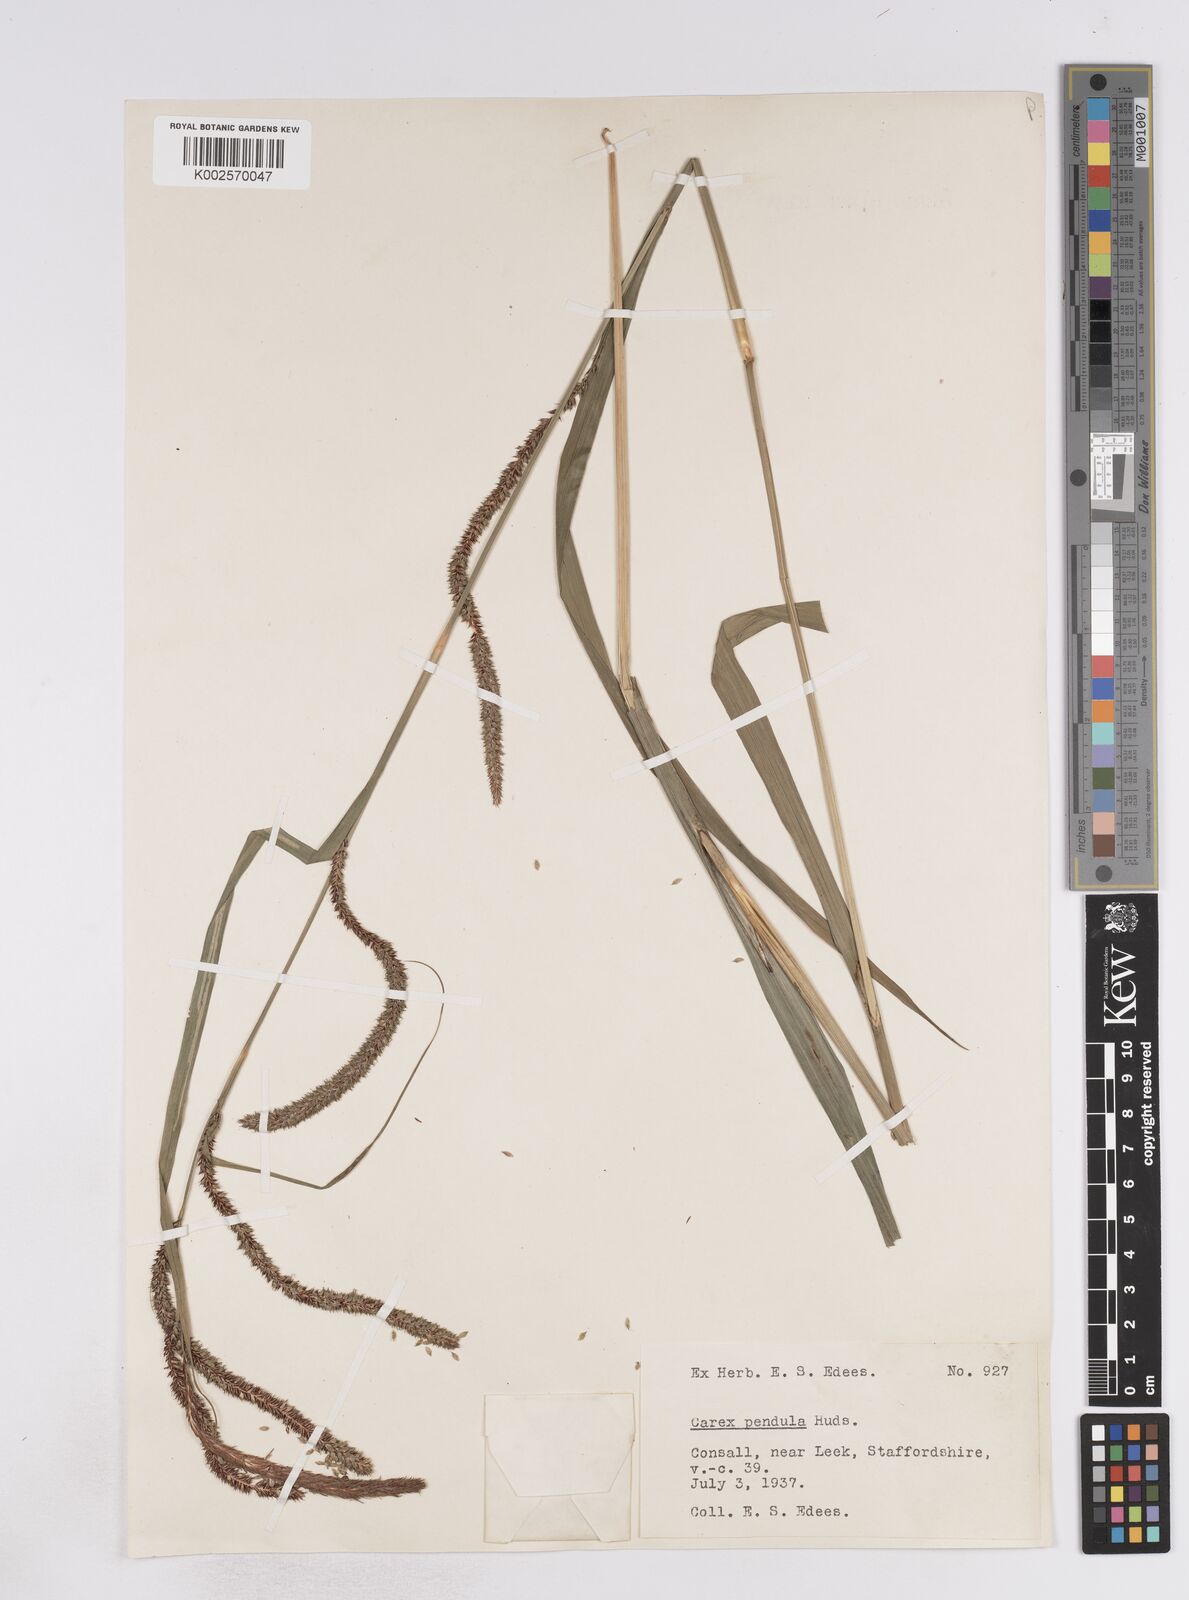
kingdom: Plantae
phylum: Tracheophyta
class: Liliopsida
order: Poales
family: Cyperaceae
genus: Carex
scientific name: Carex pendula
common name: Pendulous sedge
